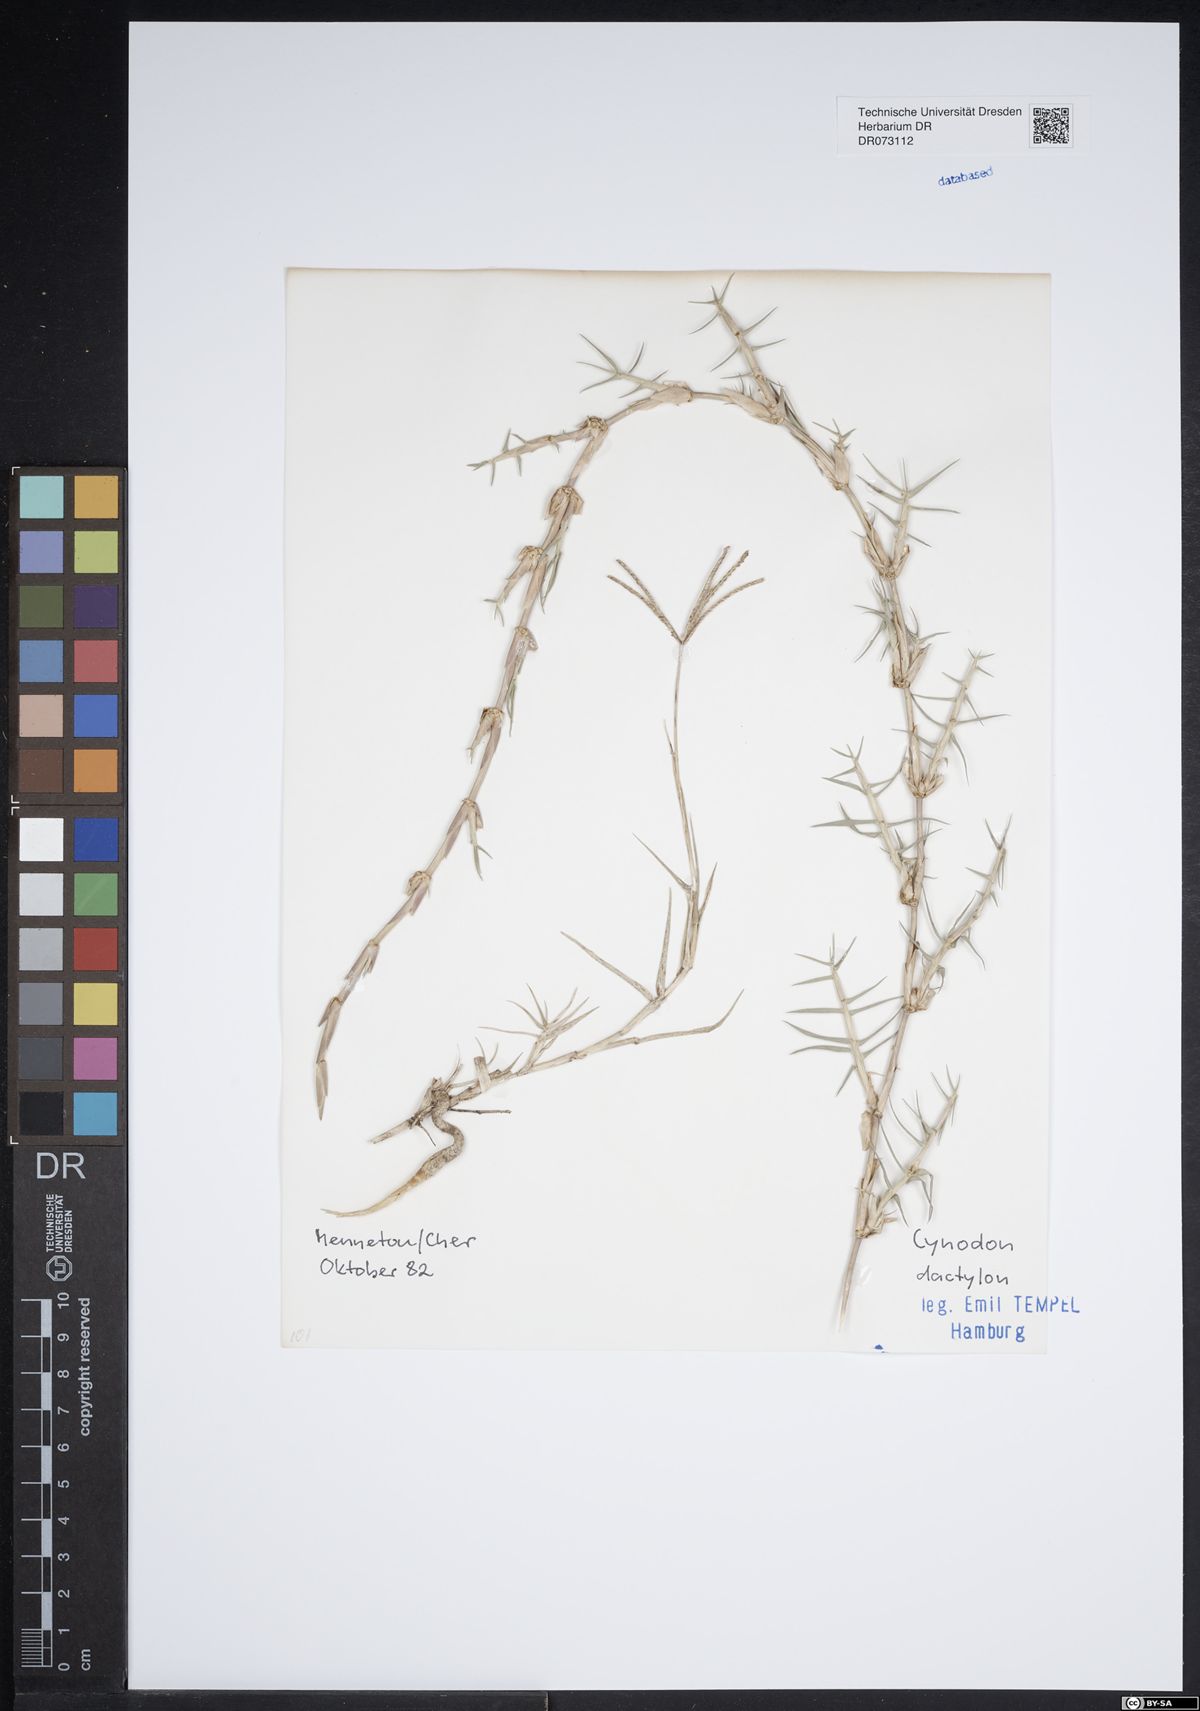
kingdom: Plantae
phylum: Tracheophyta
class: Liliopsida
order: Poales
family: Poaceae
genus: Cynodon
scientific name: Cynodon dactylon
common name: Bermuda grass
